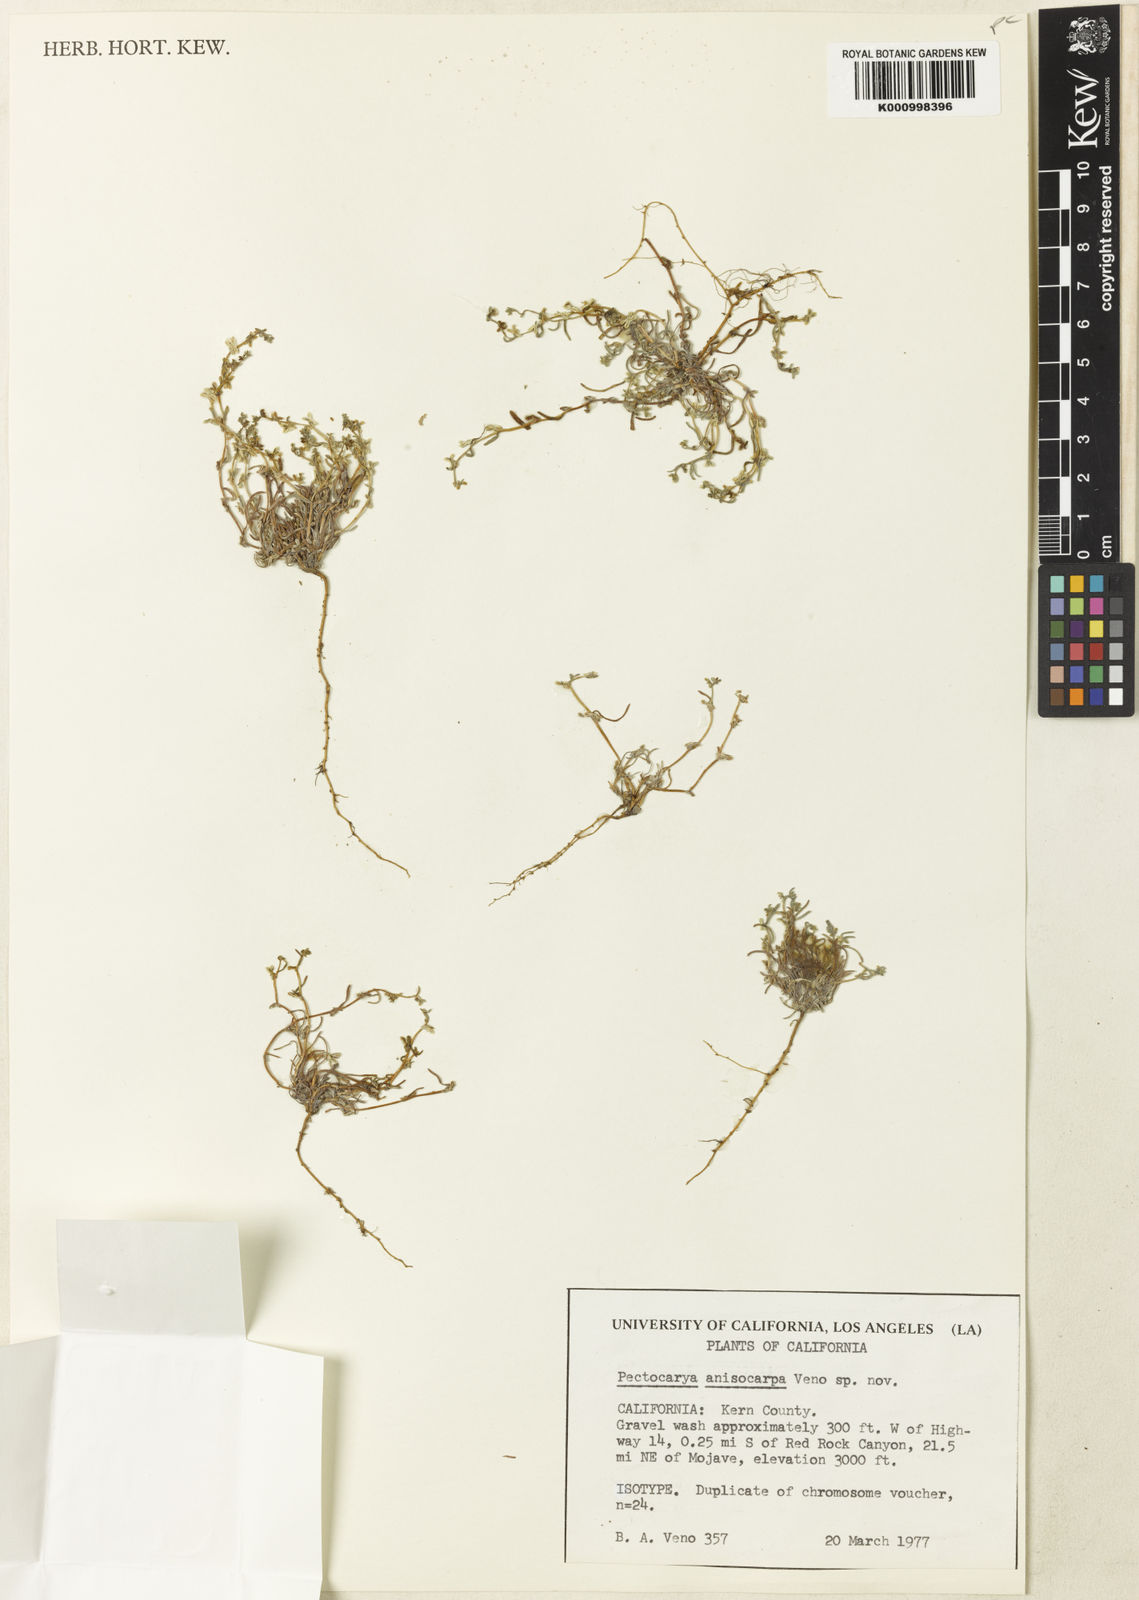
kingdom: Plantae
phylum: Tracheophyta
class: Magnoliopsida
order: Boraginales
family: Boraginaceae
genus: Pectocarya
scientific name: Pectocarya anisocarpa
